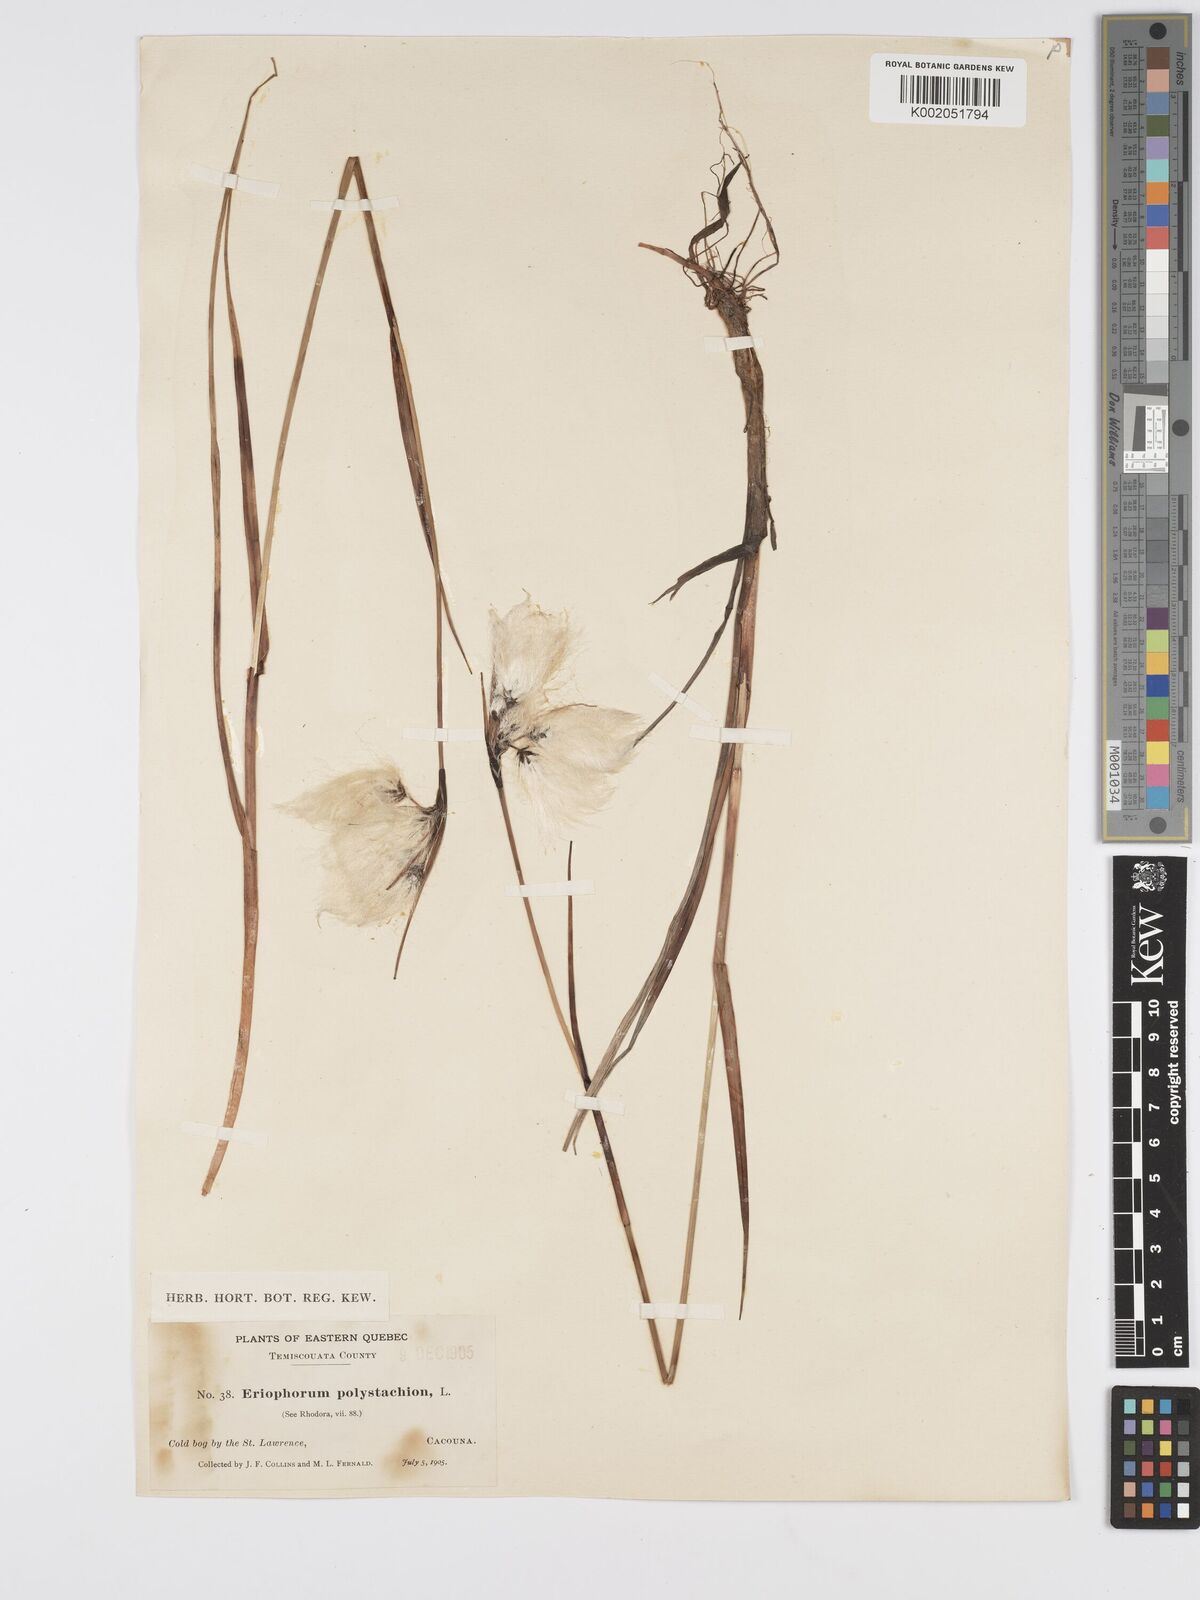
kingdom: Plantae
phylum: Tracheophyta
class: Liliopsida
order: Poales
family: Cyperaceae
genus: Eriophorum
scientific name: Eriophorum angustifolium
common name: Common cottongrass
